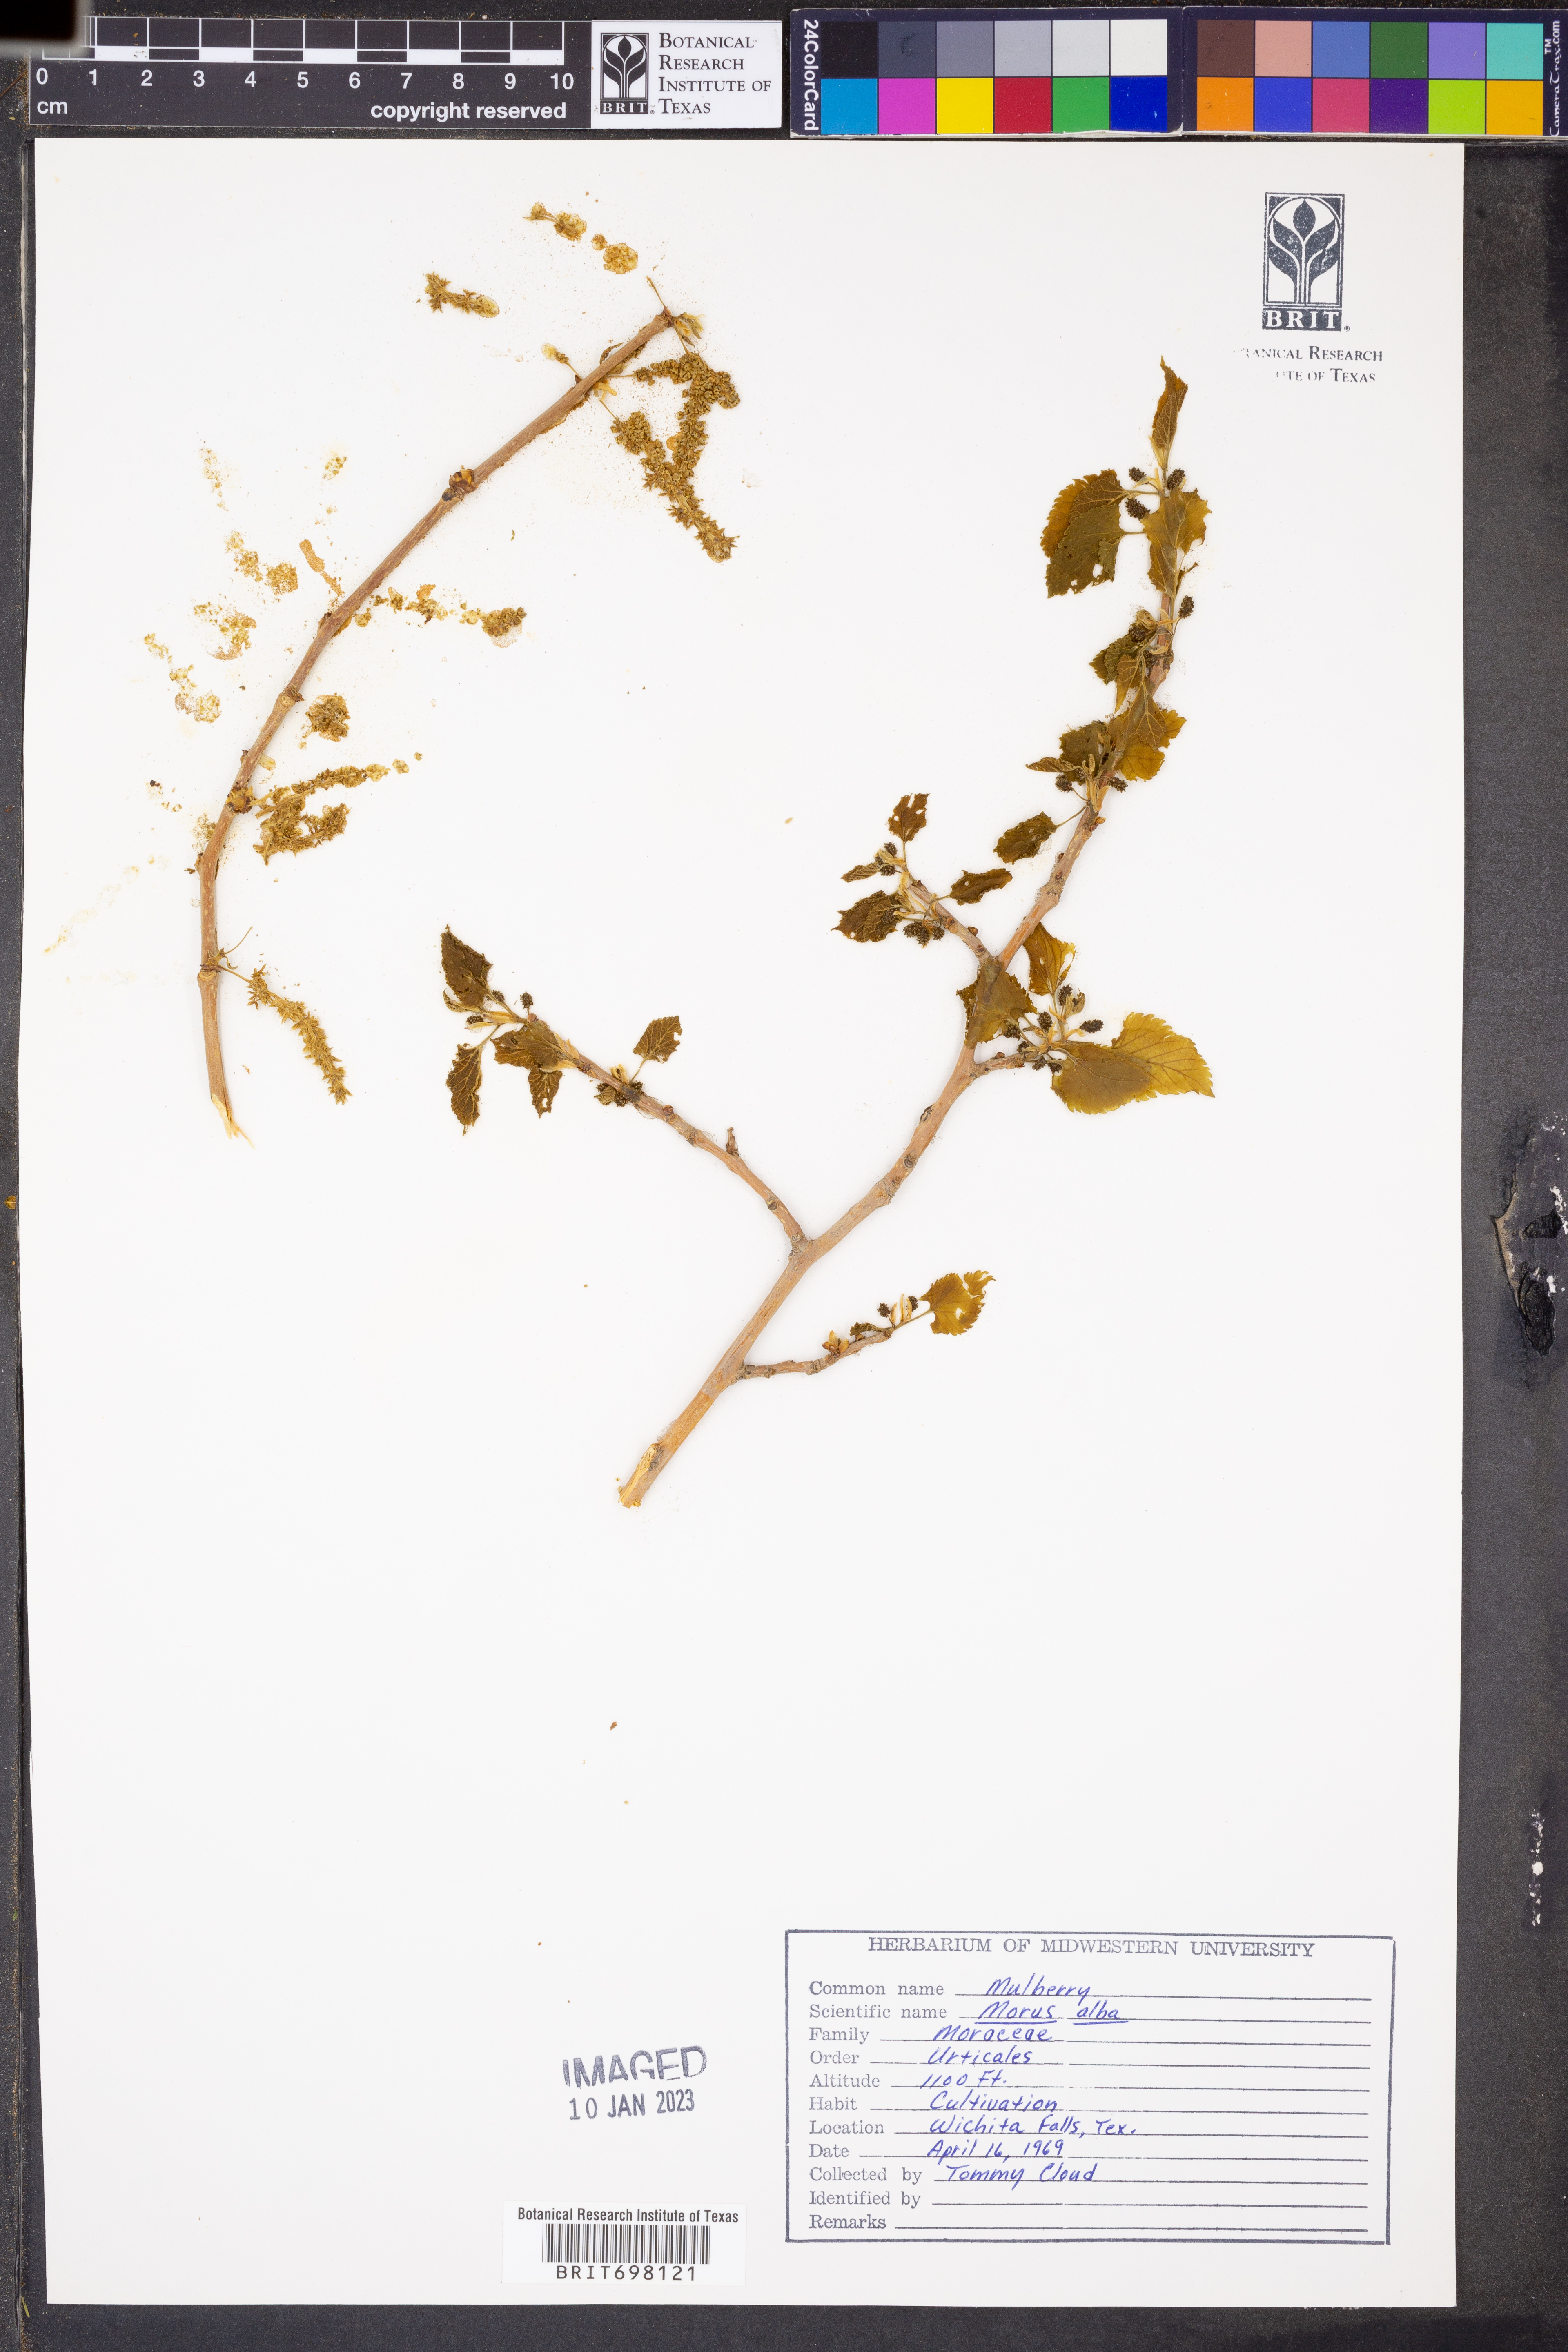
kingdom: Plantae
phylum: Tracheophyta
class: Magnoliopsida
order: Rosales
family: Moraceae
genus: Morus
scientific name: Morus alba
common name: White mulberry
